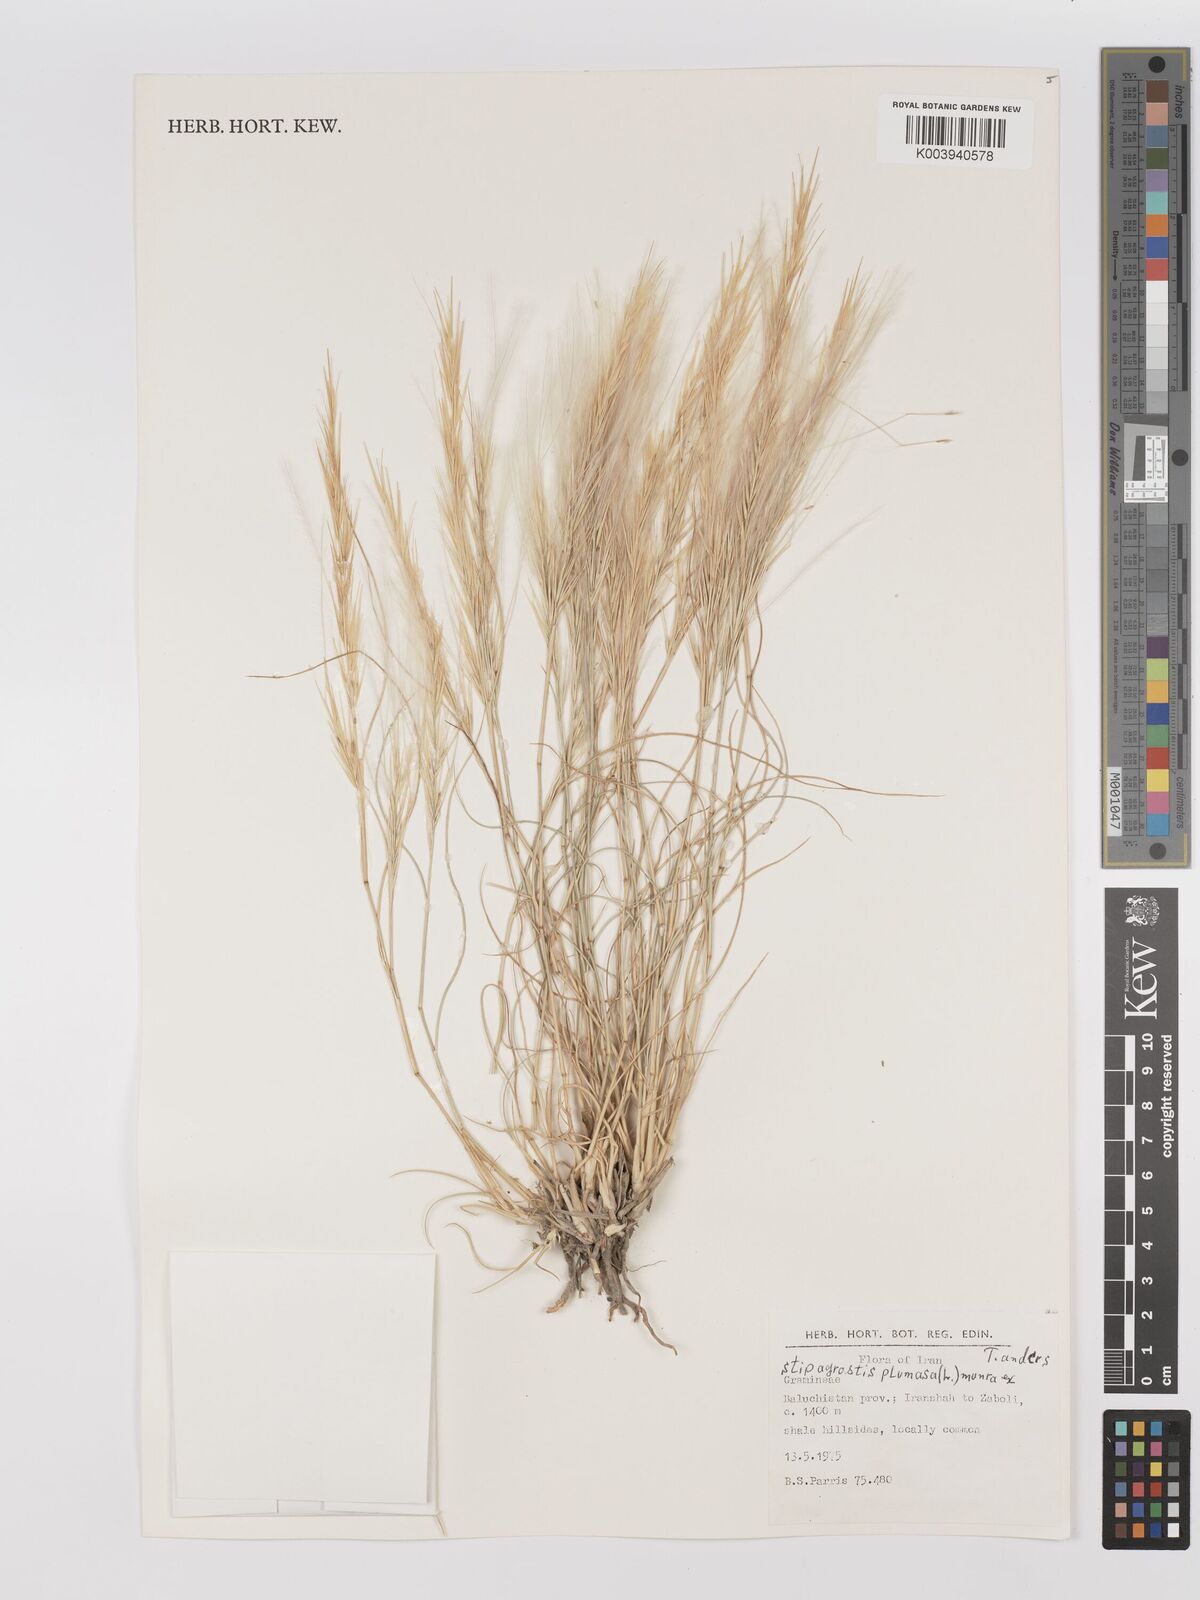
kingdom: Plantae
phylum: Tracheophyta
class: Liliopsida
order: Poales
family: Poaceae
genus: Stipagrostis
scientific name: Stipagrostis plumosa
